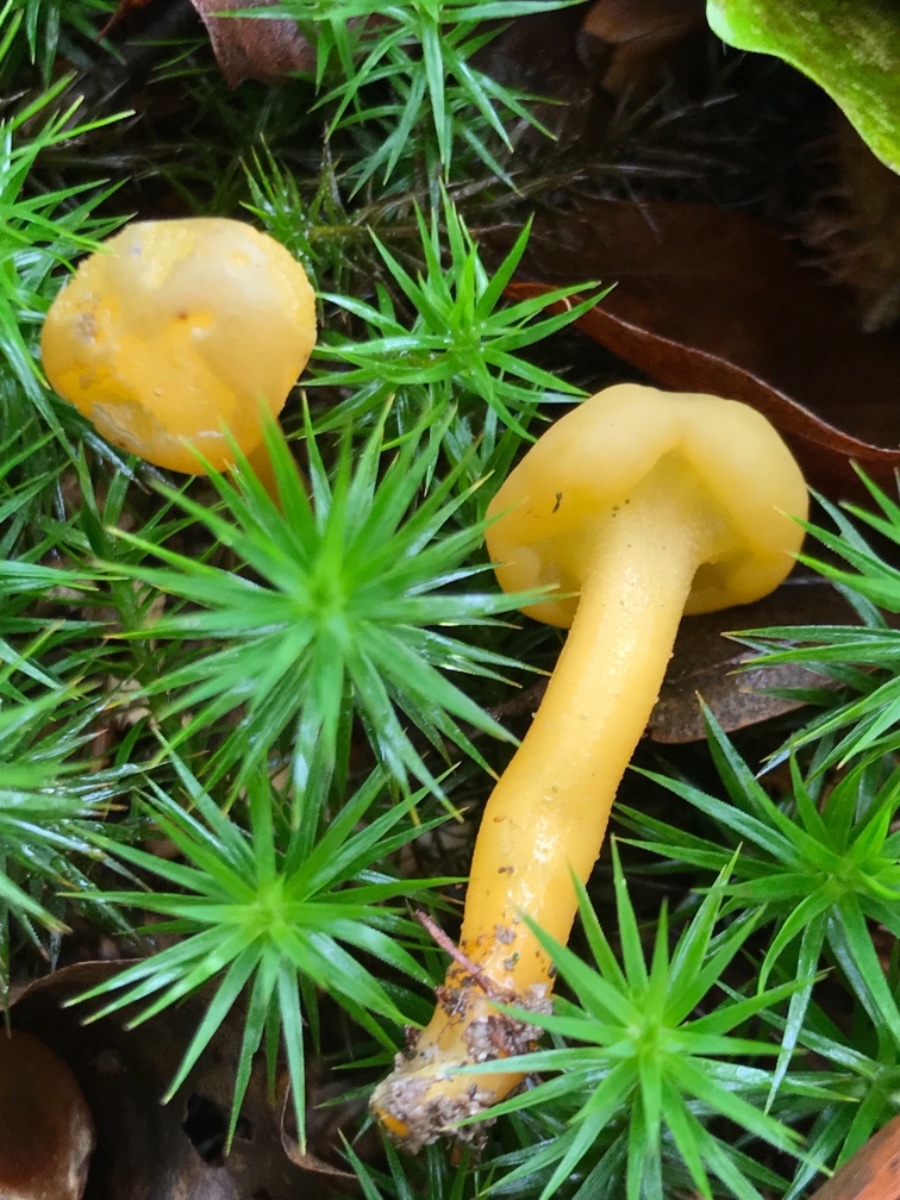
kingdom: Fungi
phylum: Ascomycota
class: Leotiomycetes
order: Leotiales
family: Leotiaceae
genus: Leotia
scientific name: Leotia lubrica
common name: ravsvamp
